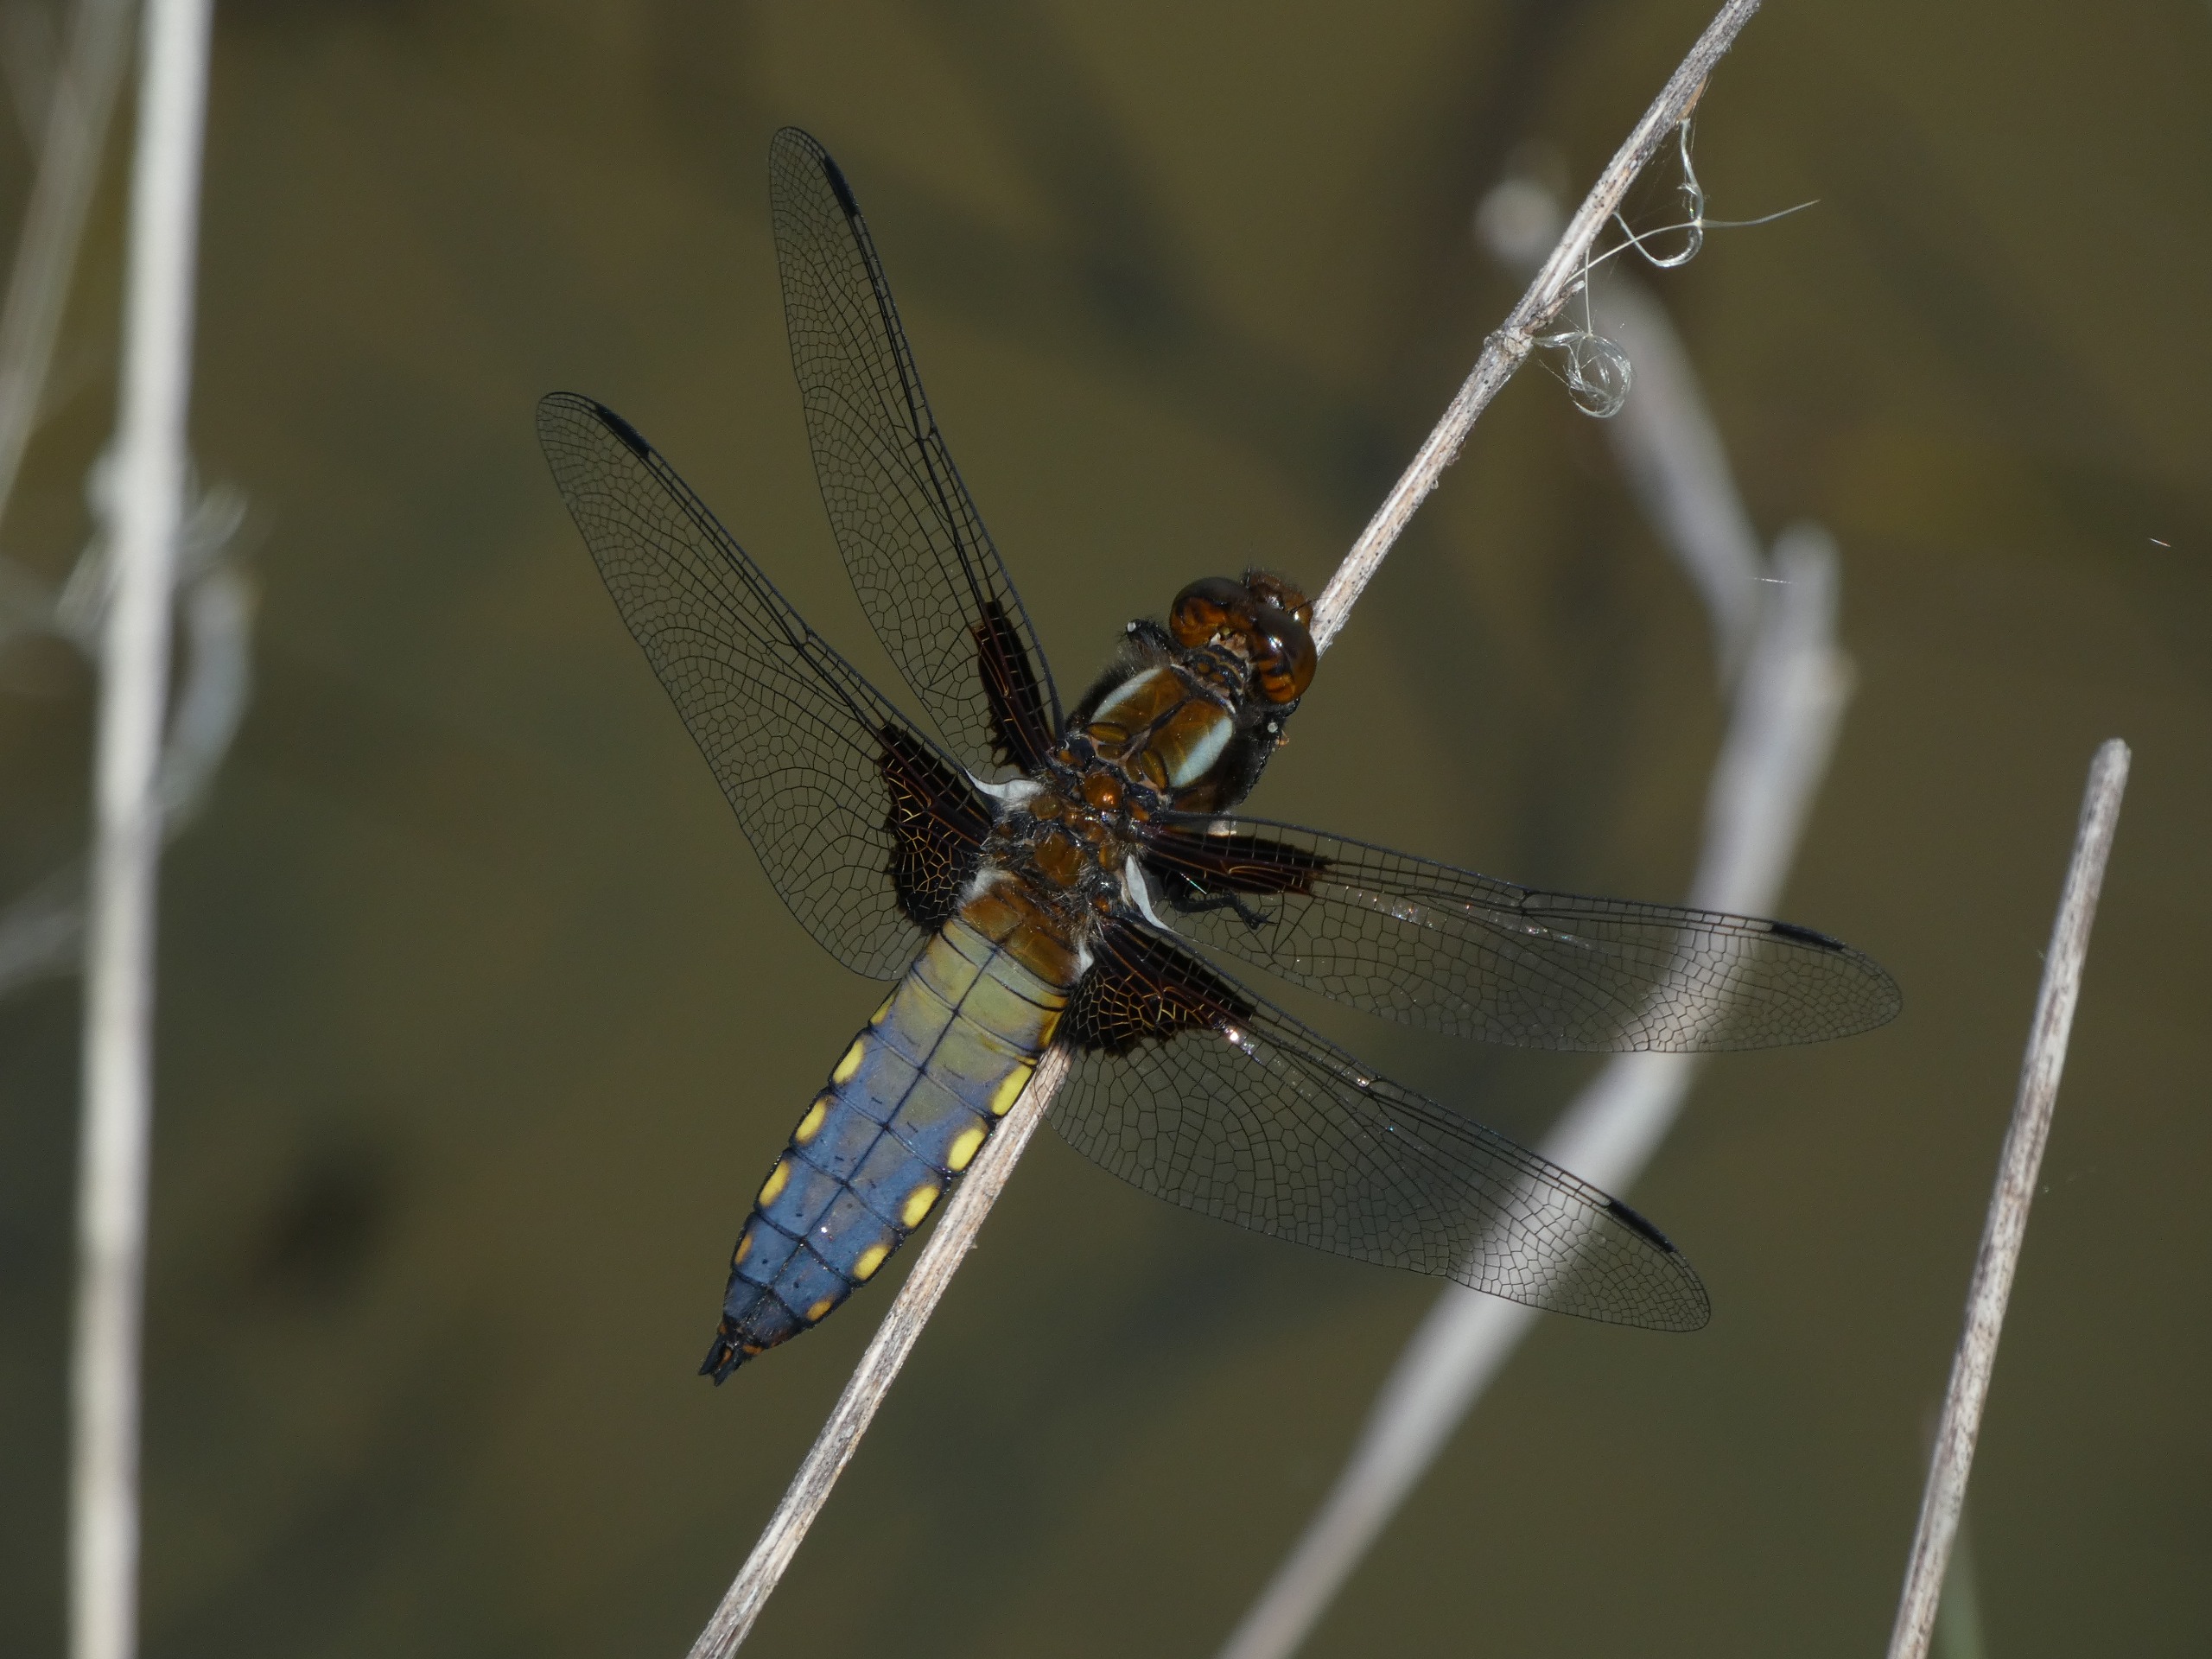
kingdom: Animalia
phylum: Arthropoda
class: Insecta
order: Odonata
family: Libellulidae
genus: Libellula
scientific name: Libellula depressa
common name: Blå libel
